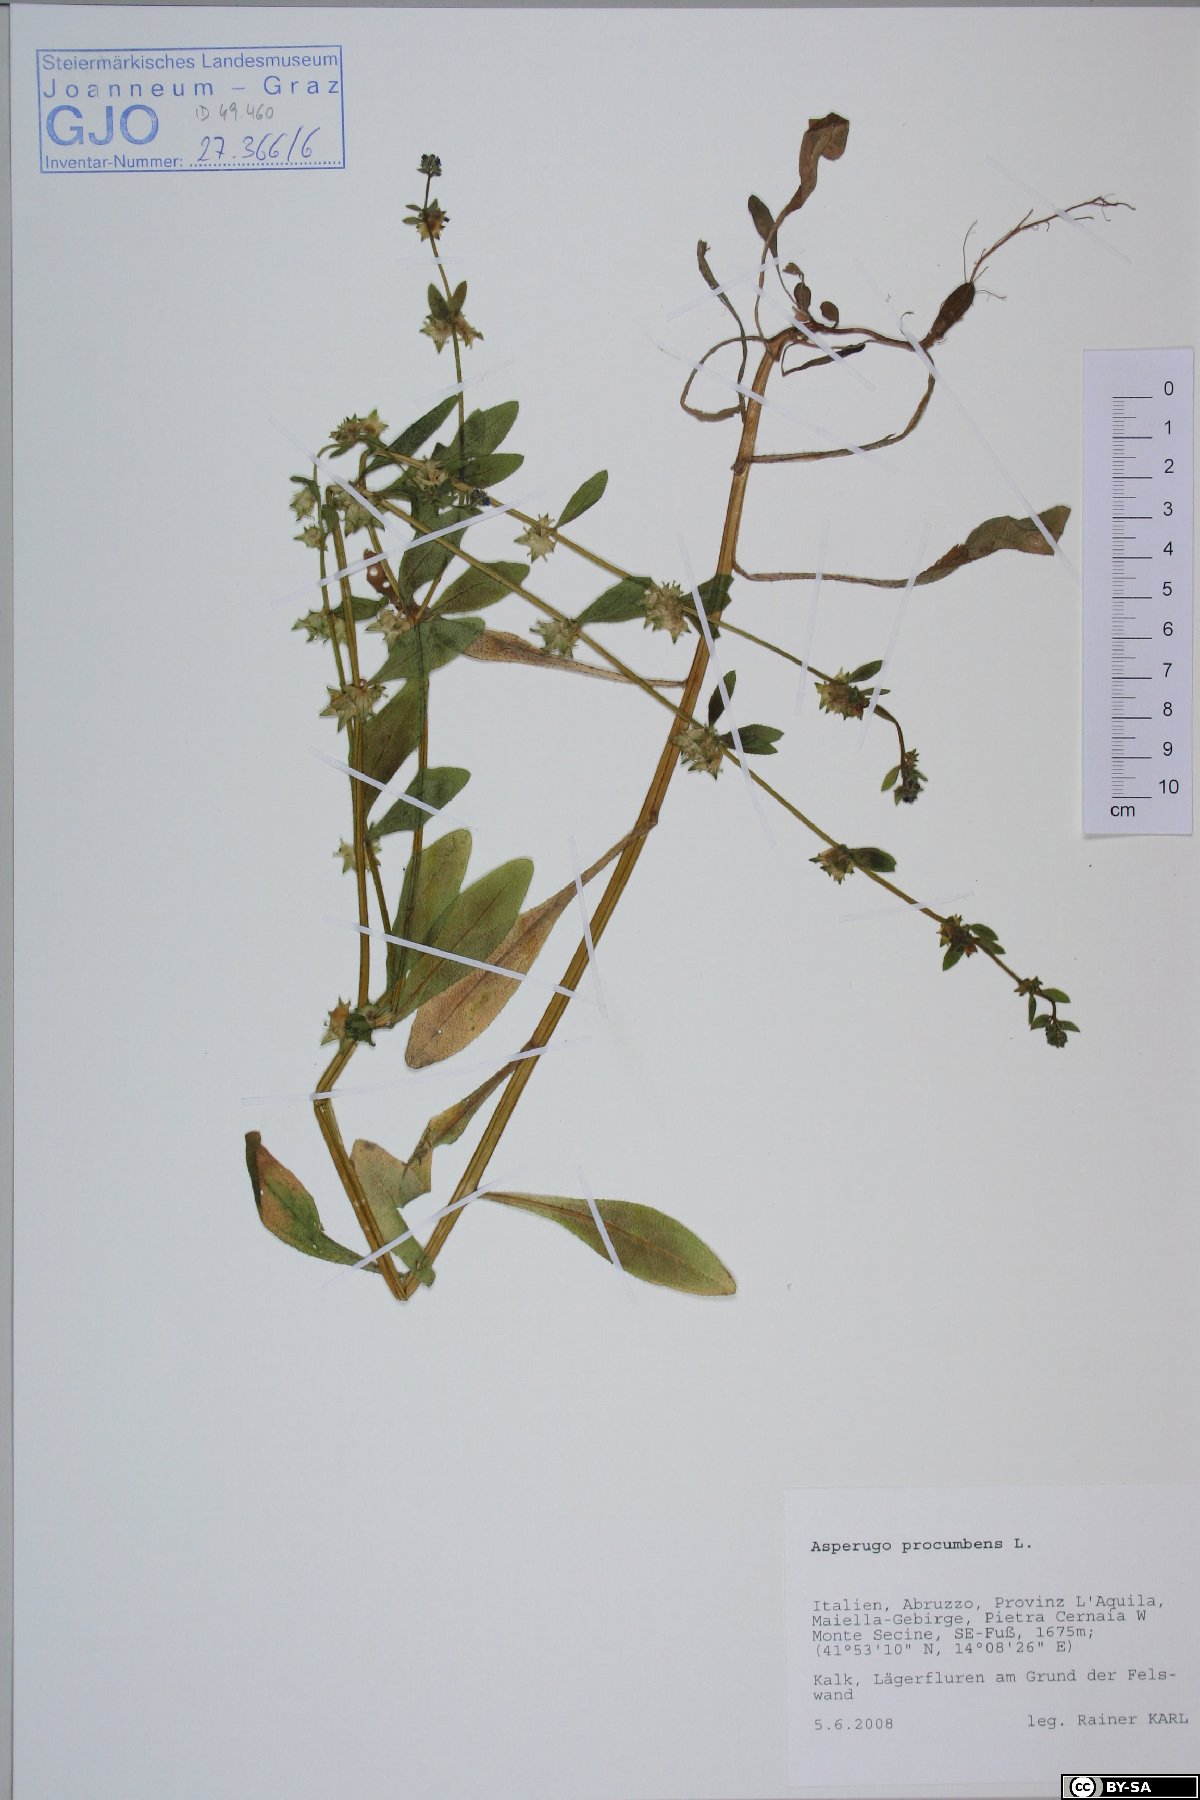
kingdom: Plantae
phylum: Tracheophyta
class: Magnoliopsida
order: Boraginales
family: Boraginaceae
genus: Asperugo
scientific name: Asperugo procumbens
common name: Madwort
